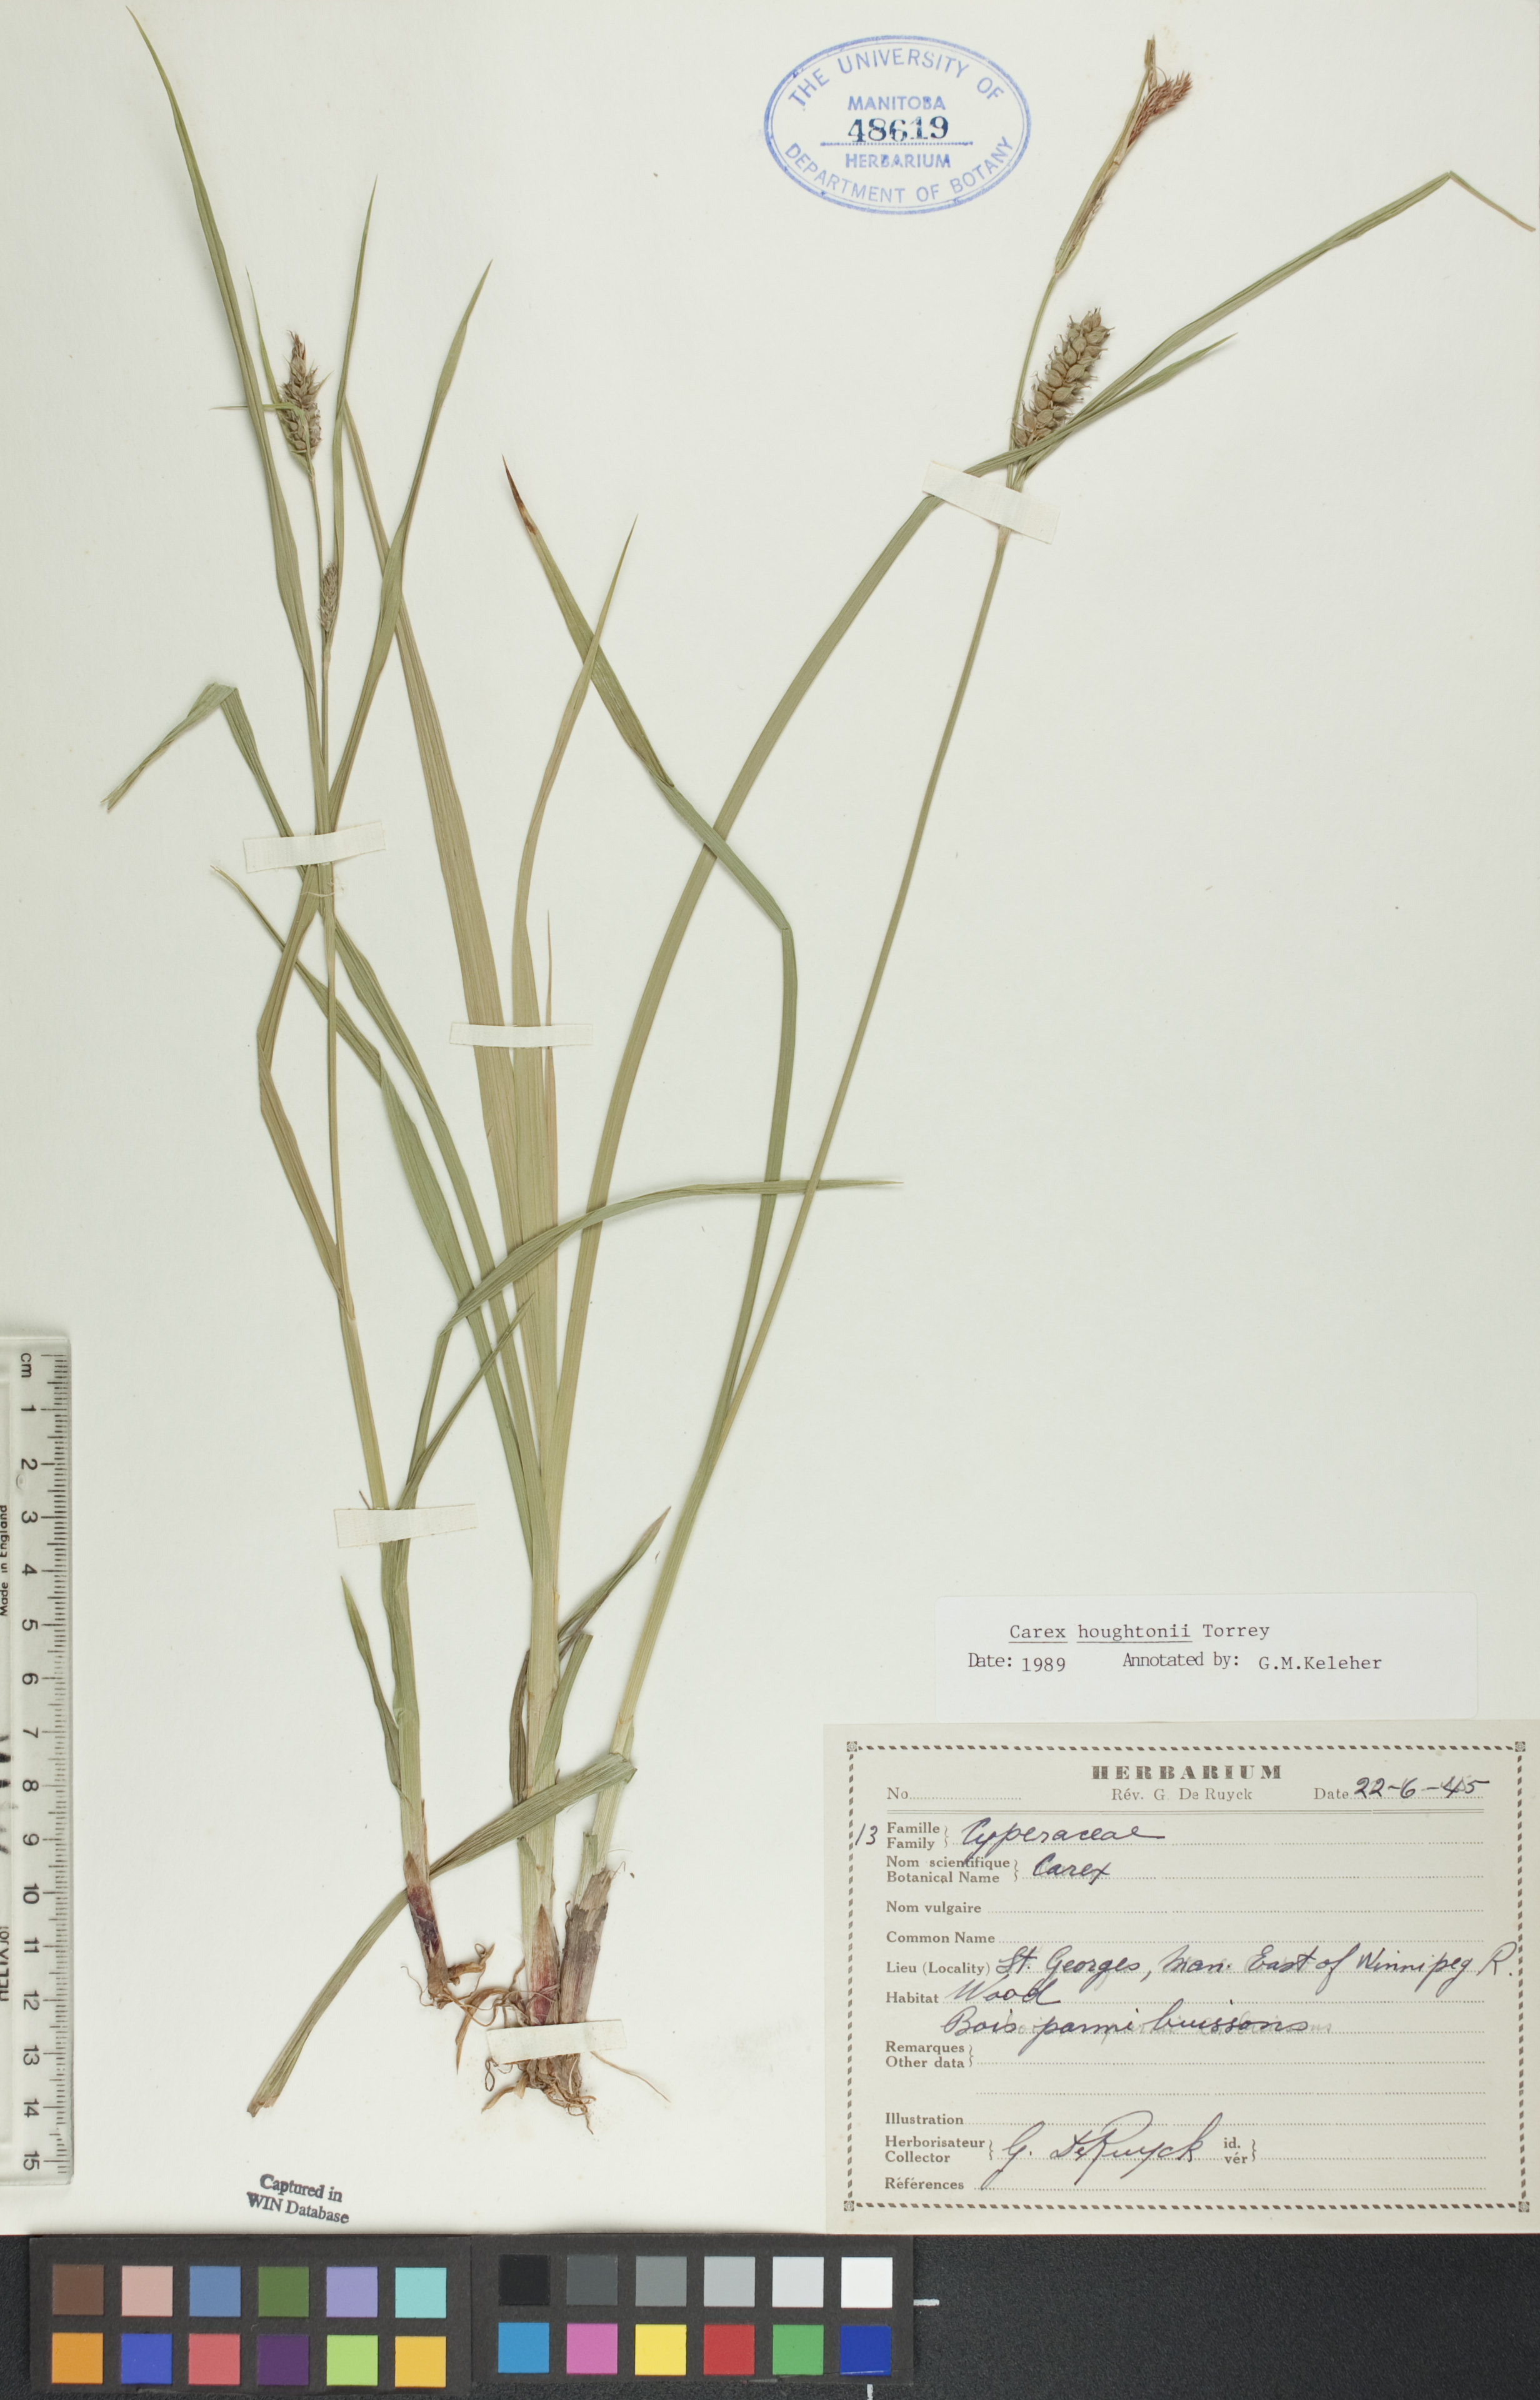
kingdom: Plantae
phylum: Tracheophyta
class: Liliopsida
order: Poales
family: Cyperaceae
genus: Carex
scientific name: Carex houghtoniana
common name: Houghton's sedge
